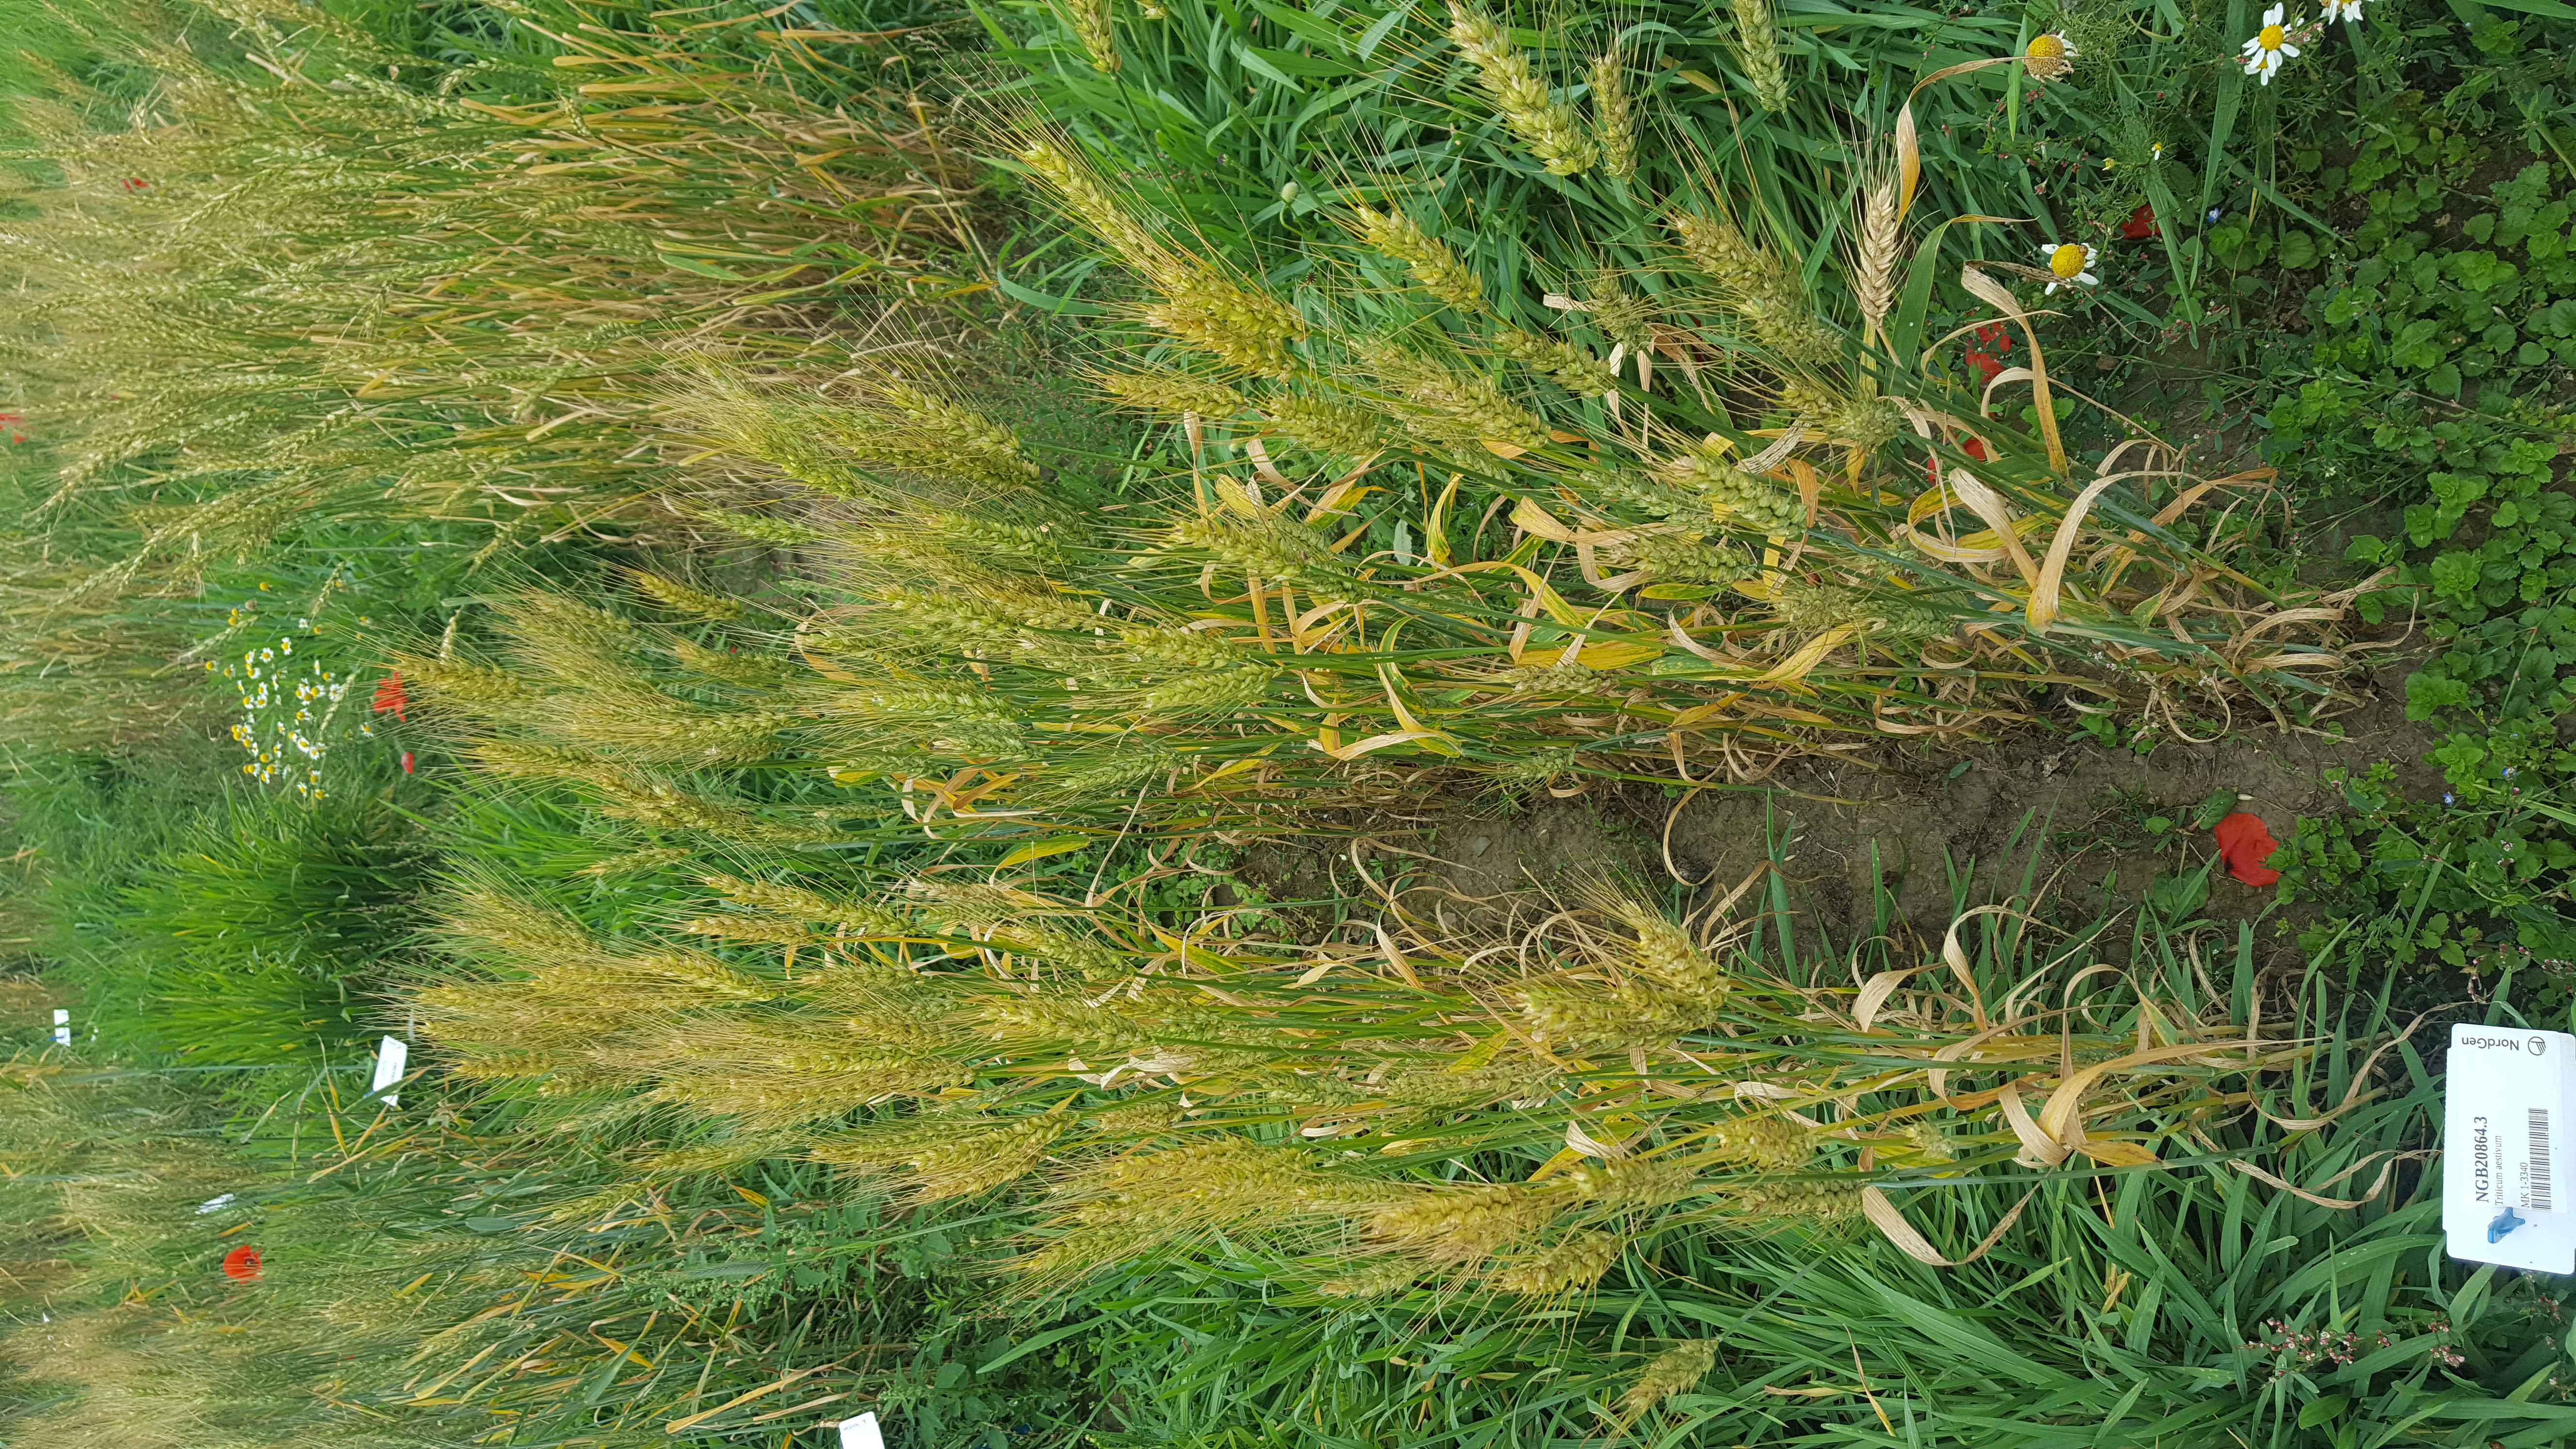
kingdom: Plantae
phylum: Tracheophyta
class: Liliopsida
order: Poales
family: Poaceae
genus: Triticum
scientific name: Triticum aestivum
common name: Common wheat
